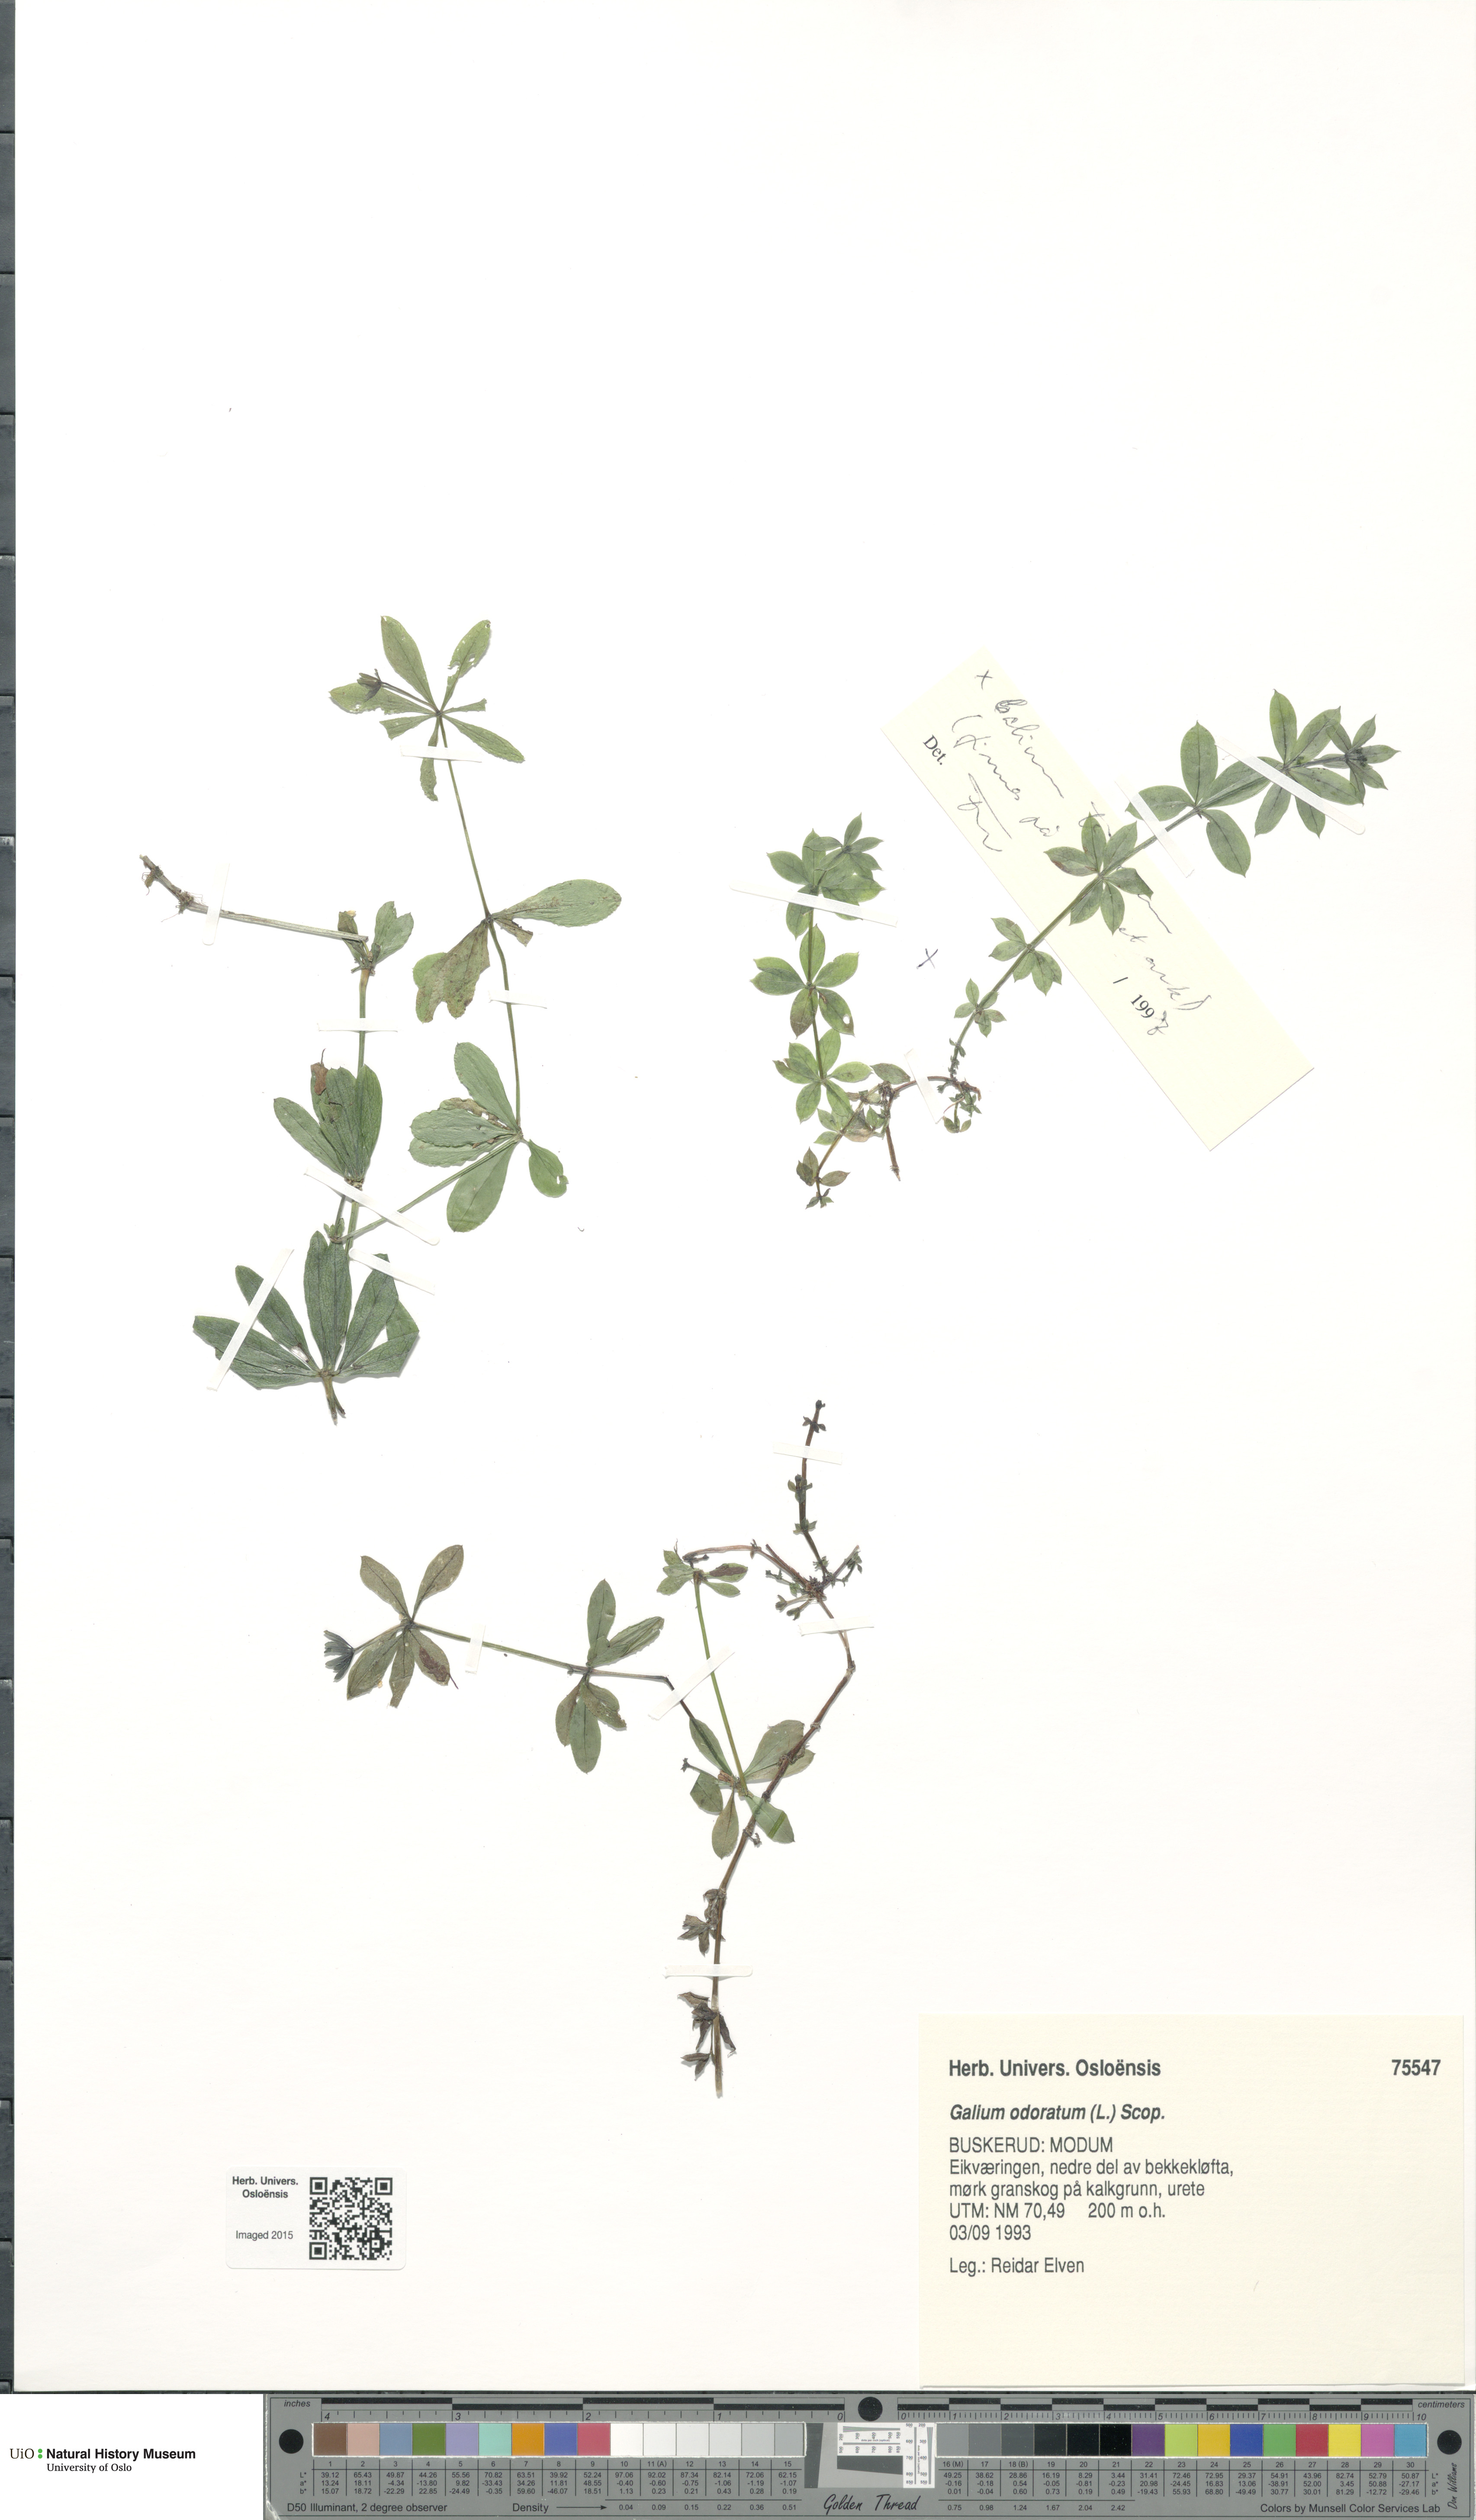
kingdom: Plantae
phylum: Tracheophyta
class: Magnoliopsida
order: Gentianales
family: Rubiaceae
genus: Galium
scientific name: Galium odoratum
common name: Sweet woodruff
